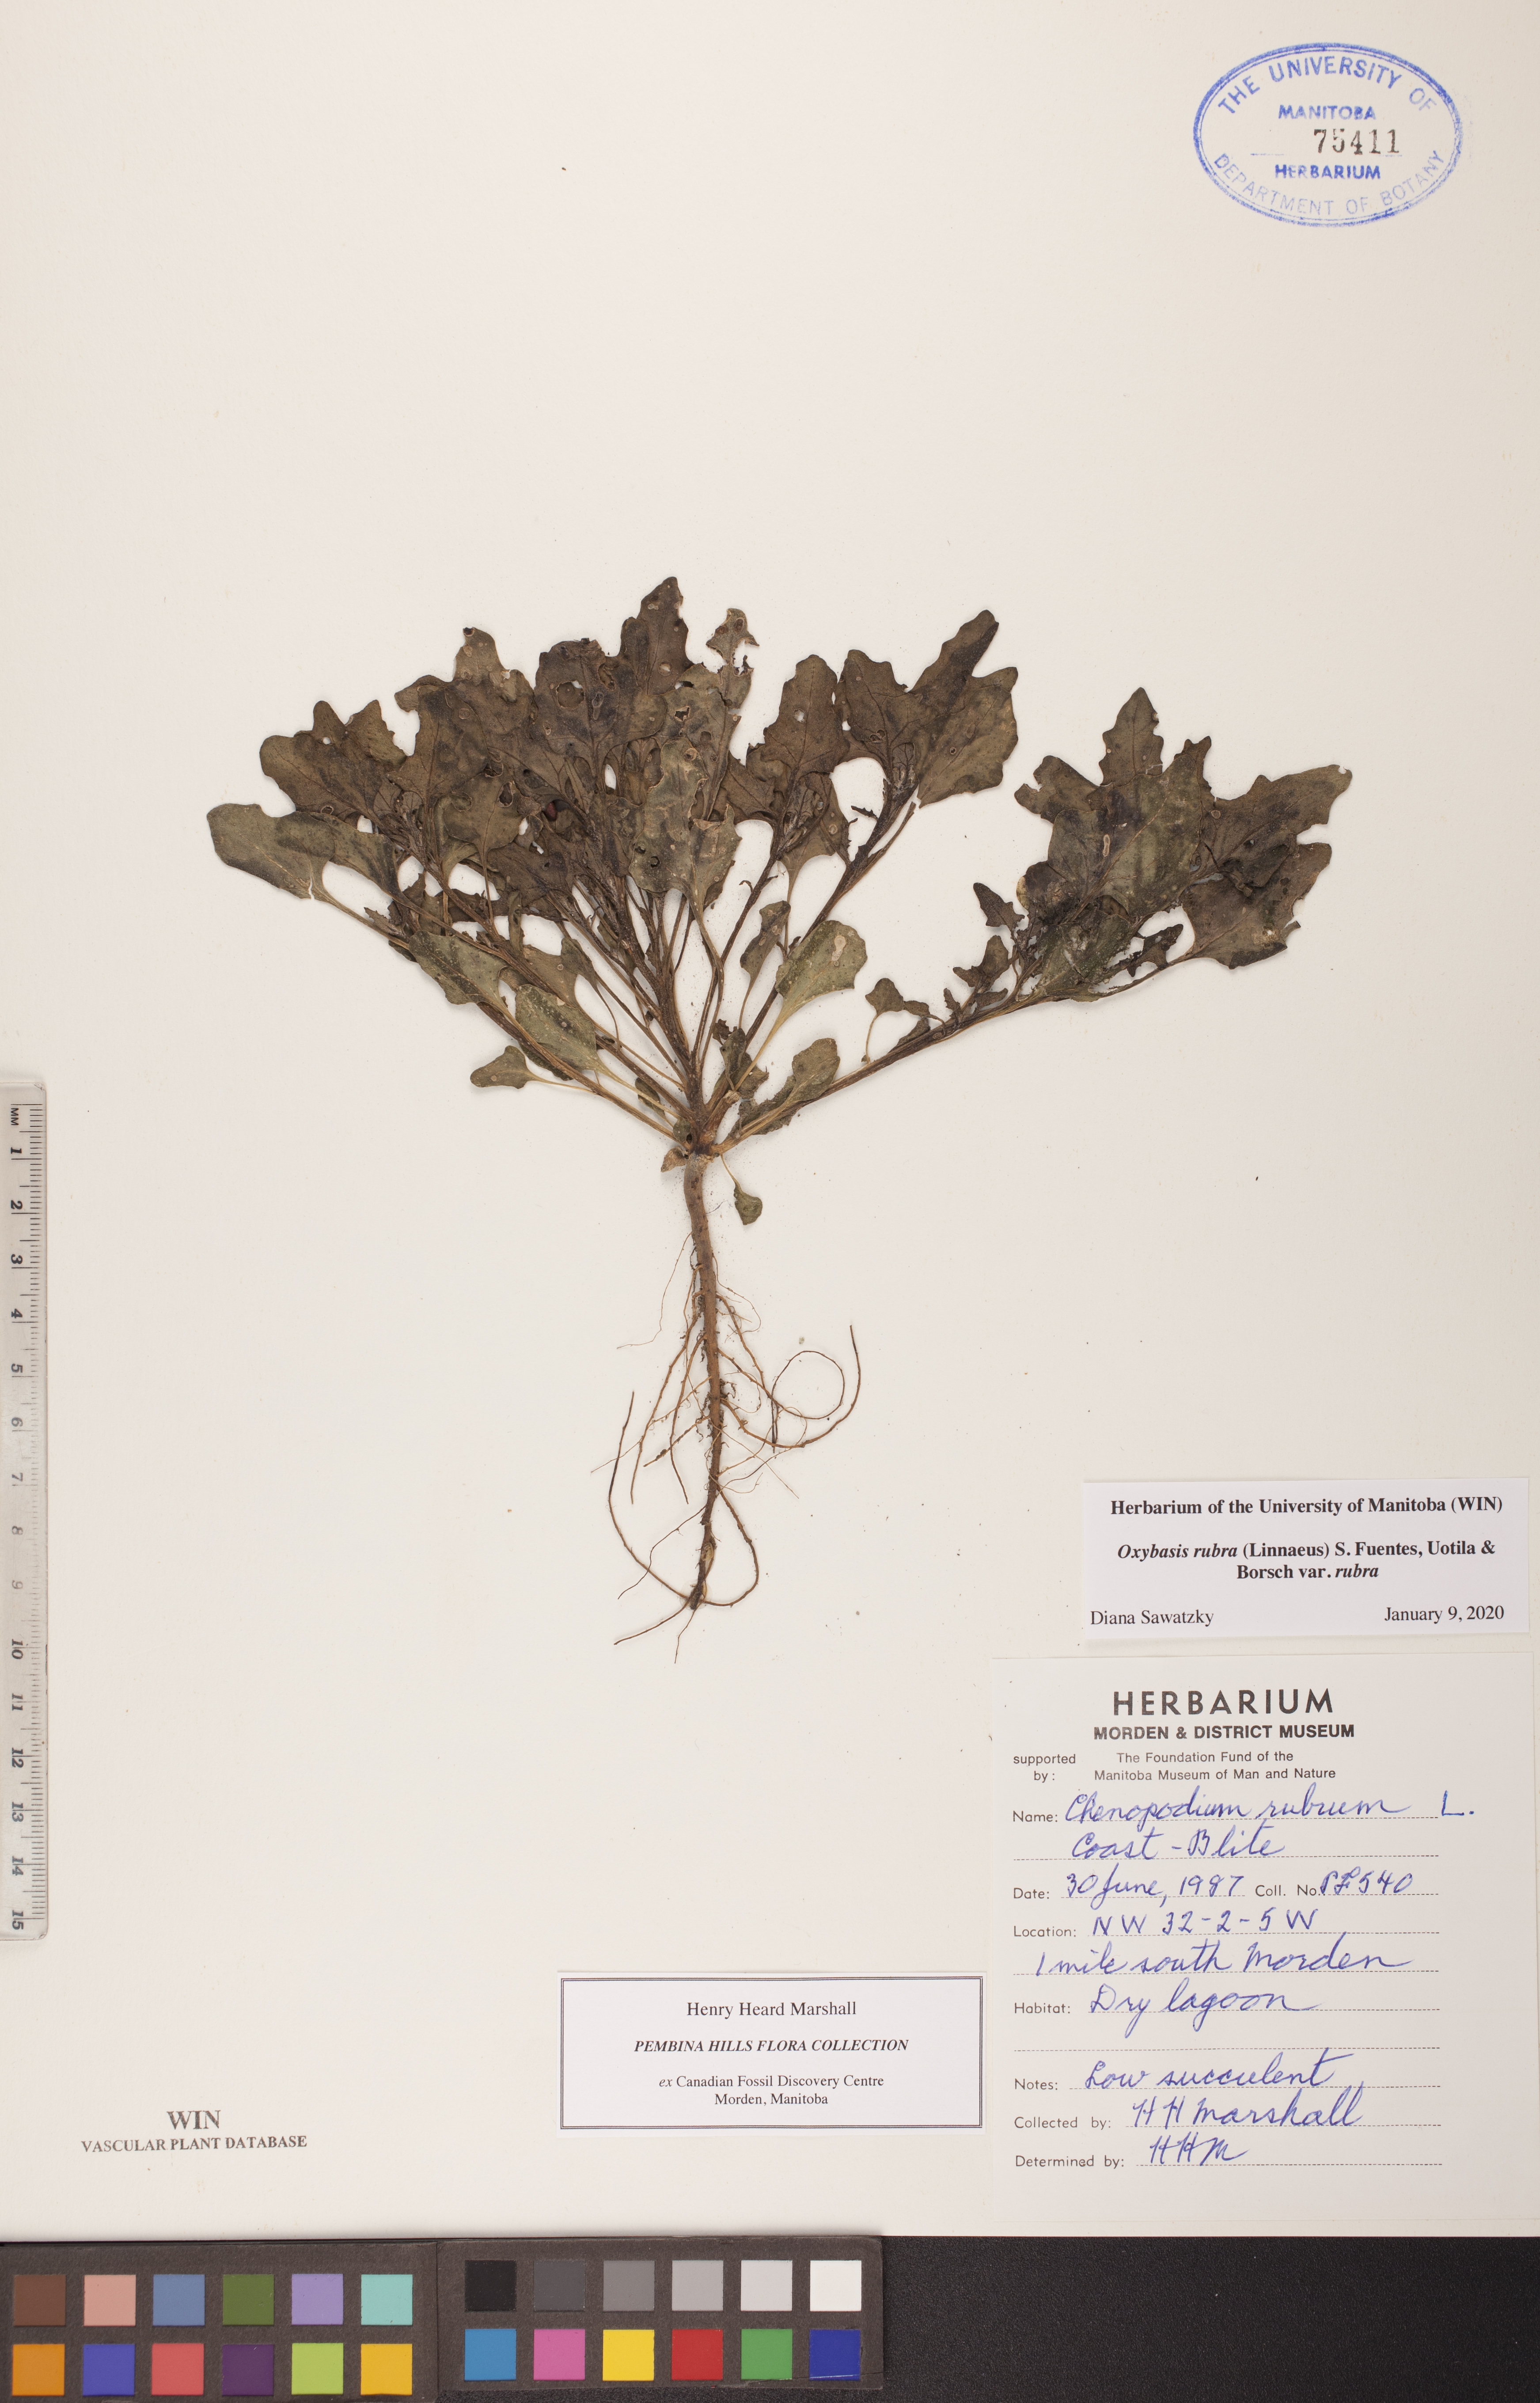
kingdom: Plantae
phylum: Tracheophyta
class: Magnoliopsida
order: Caryophyllales
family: Amaranthaceae
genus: Oxybasis
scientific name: Oxybasis rubra
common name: Red goosefoot
